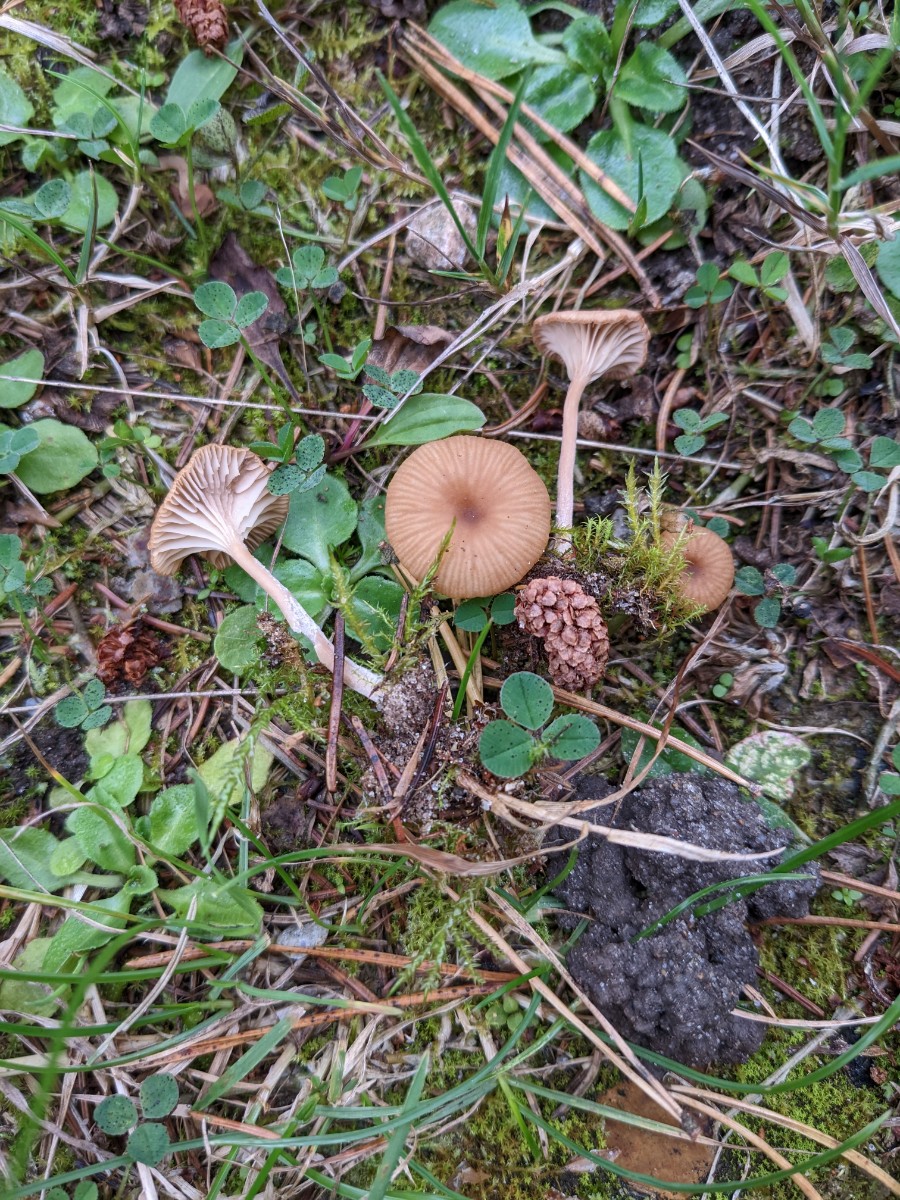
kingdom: Fungi
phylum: Basidiomycota
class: Agaricomycetes
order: Agaricales
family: Tricholomataceae
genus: Omphalina
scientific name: Omphalina pyxidata
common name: rødbrun navlehat
